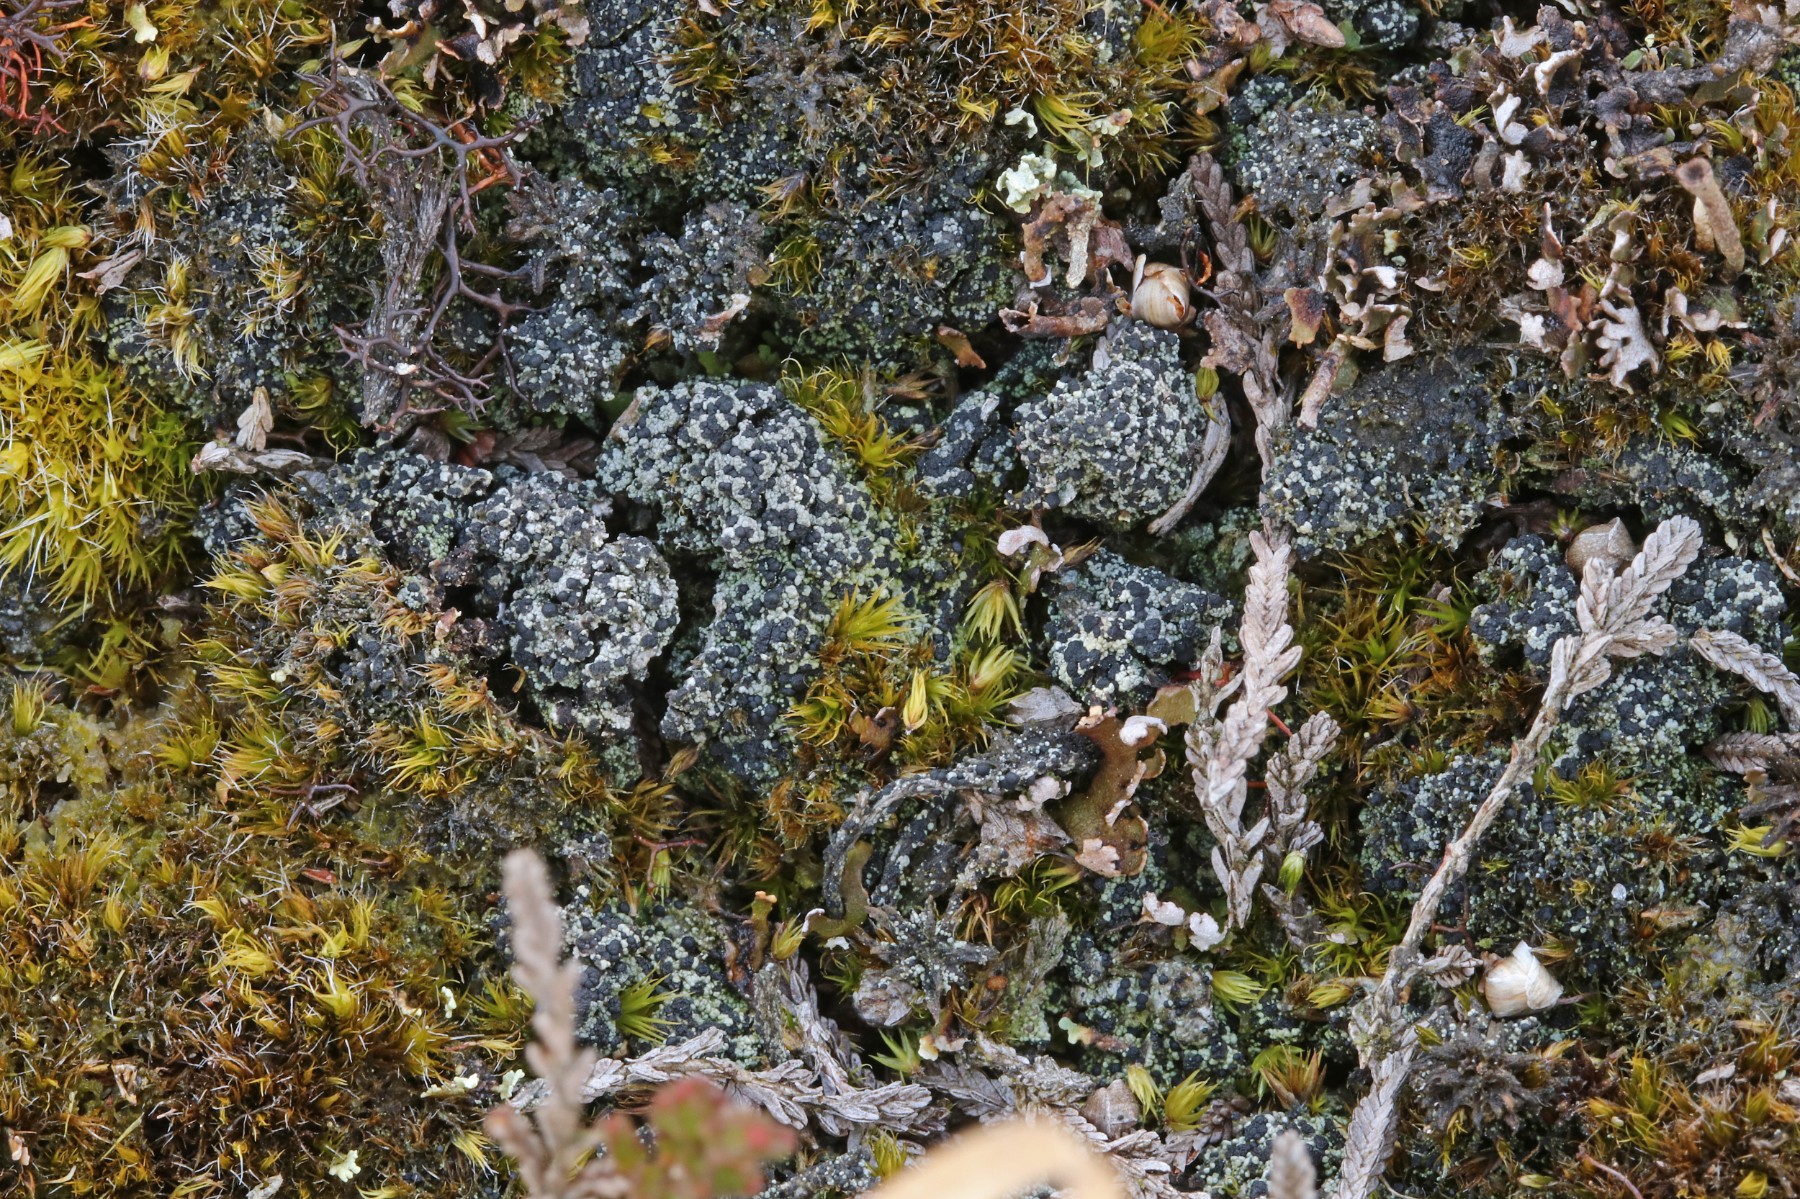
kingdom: Fungi
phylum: Ascomycota
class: Lecanoromycetes
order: Lecanorales
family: Byssolomataceae
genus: Micarea
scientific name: Micarea lignaria
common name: tørve-knaplav
